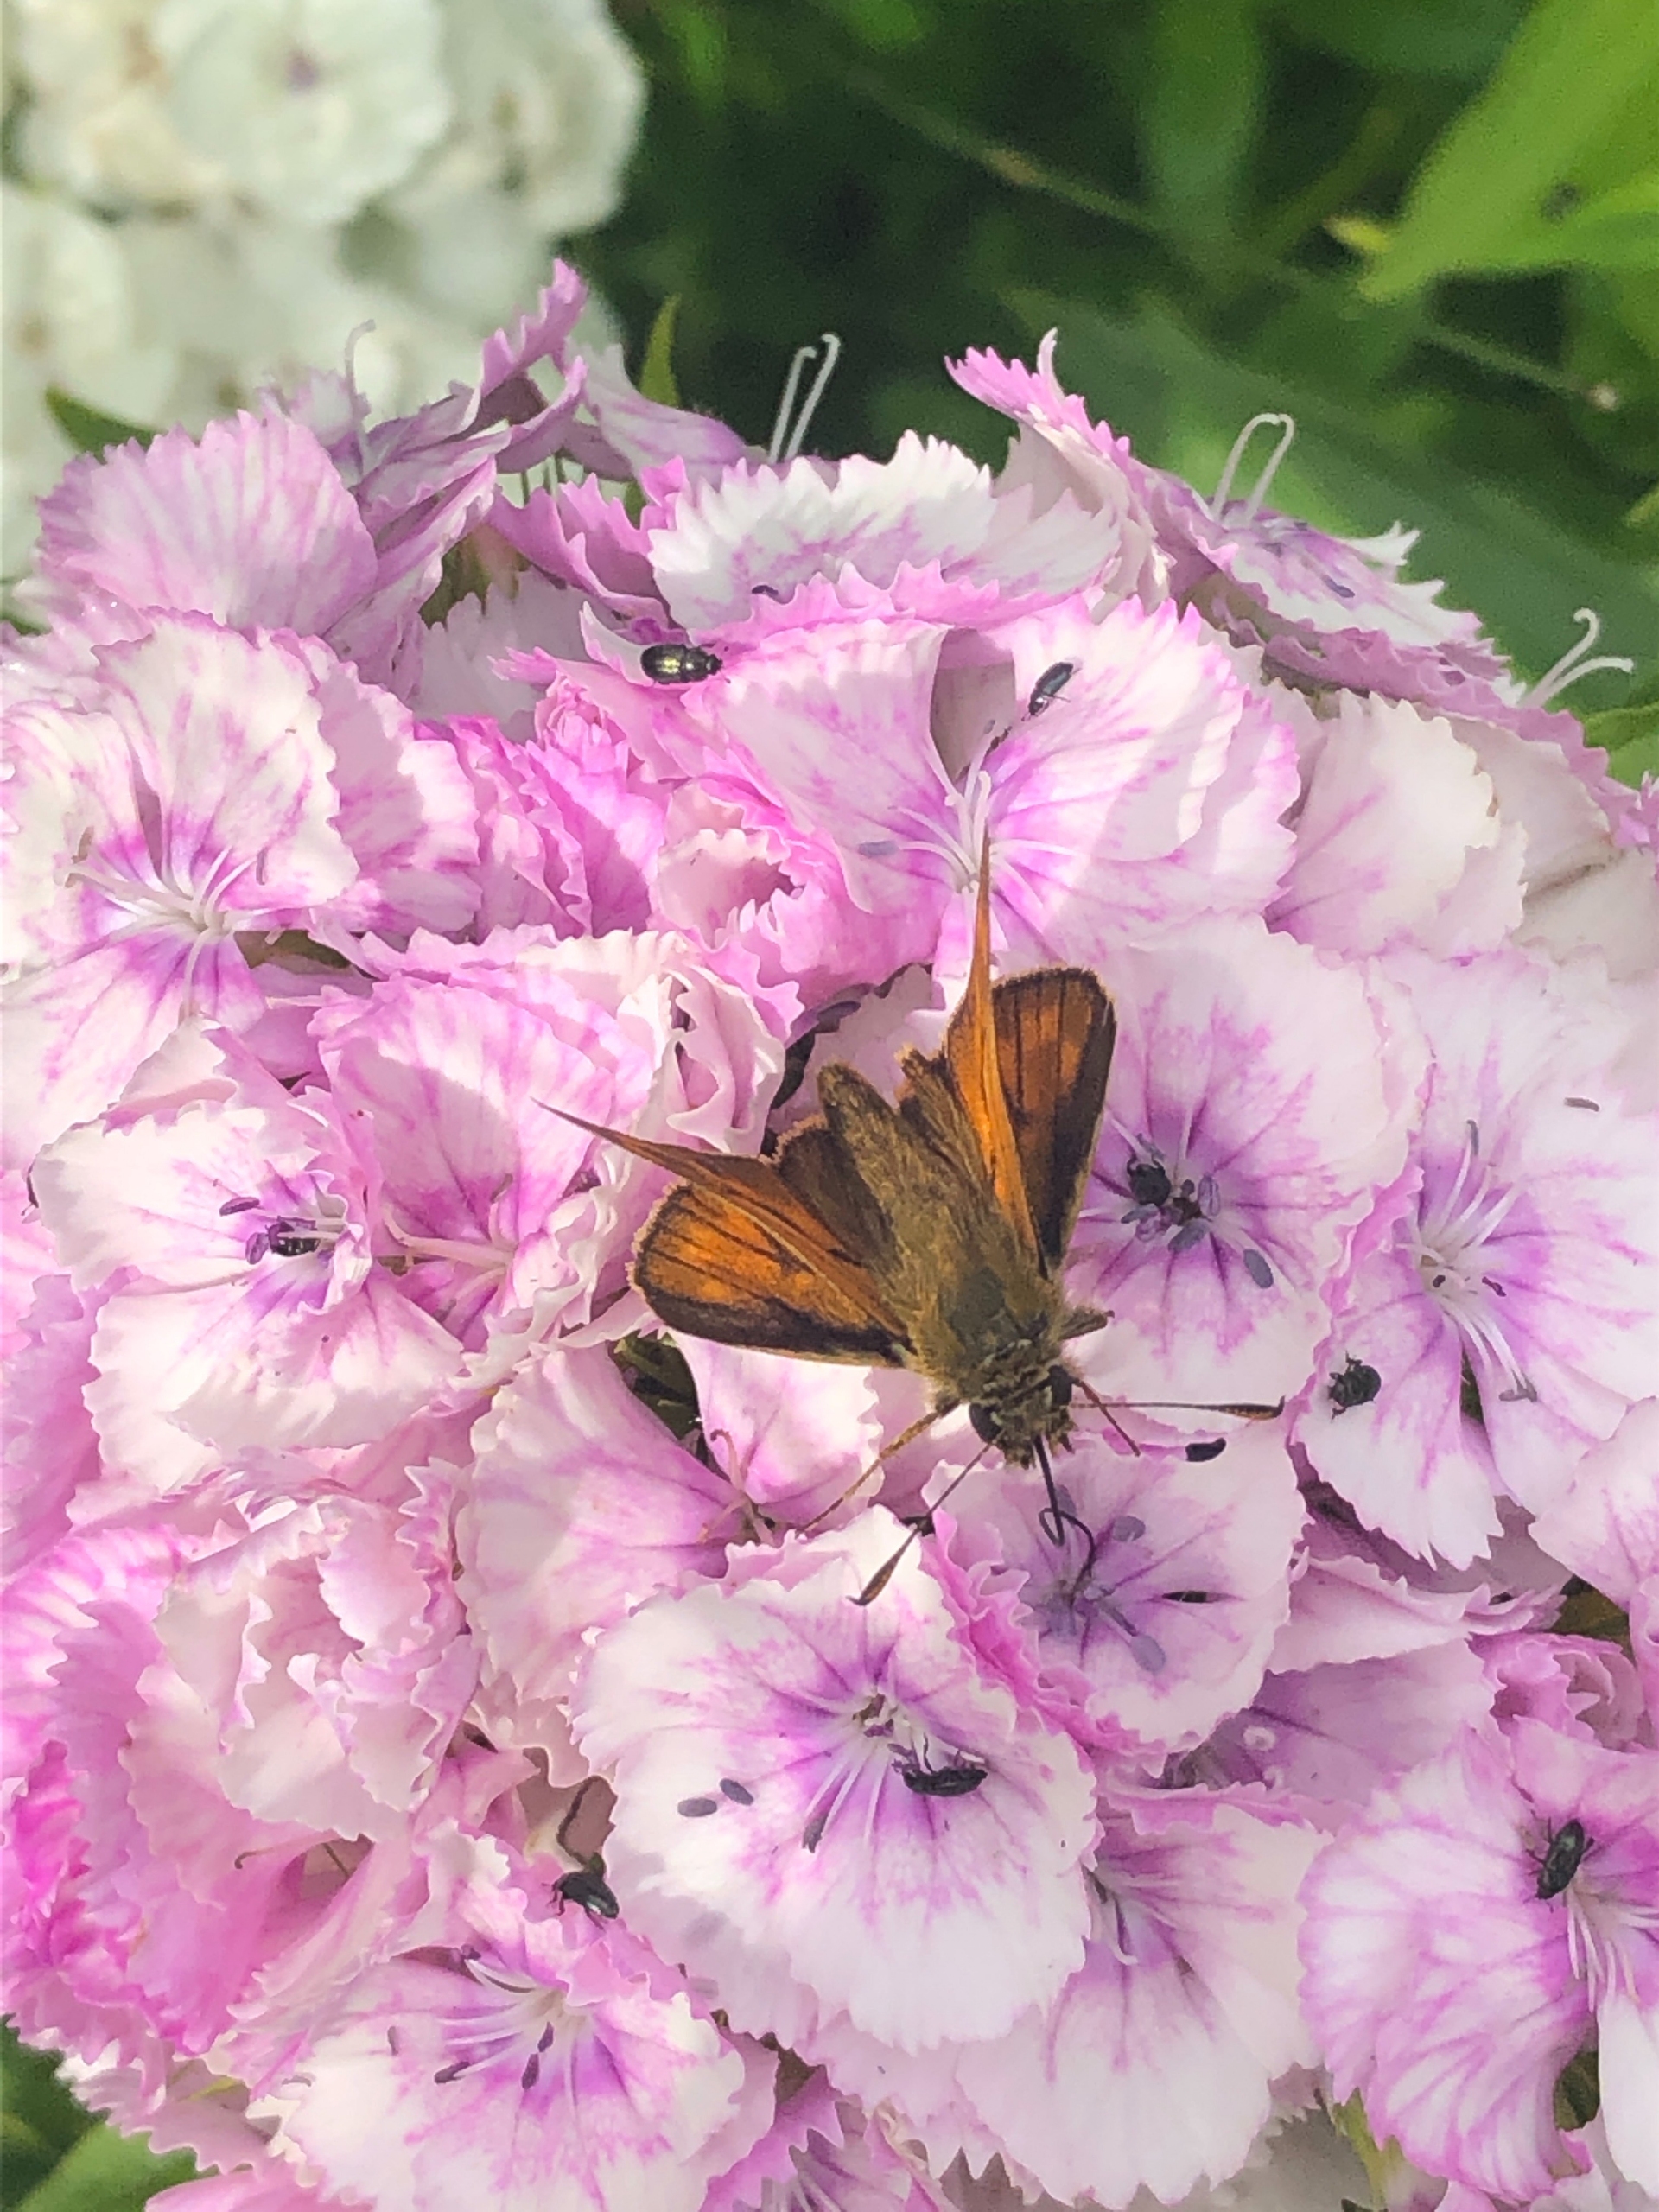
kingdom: Animalia
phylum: Arthropoda
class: Insecta
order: Lepidoptera
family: Hesperiidae
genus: Ochlodes
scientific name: Ochlodes venata
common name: Stor bredpande
